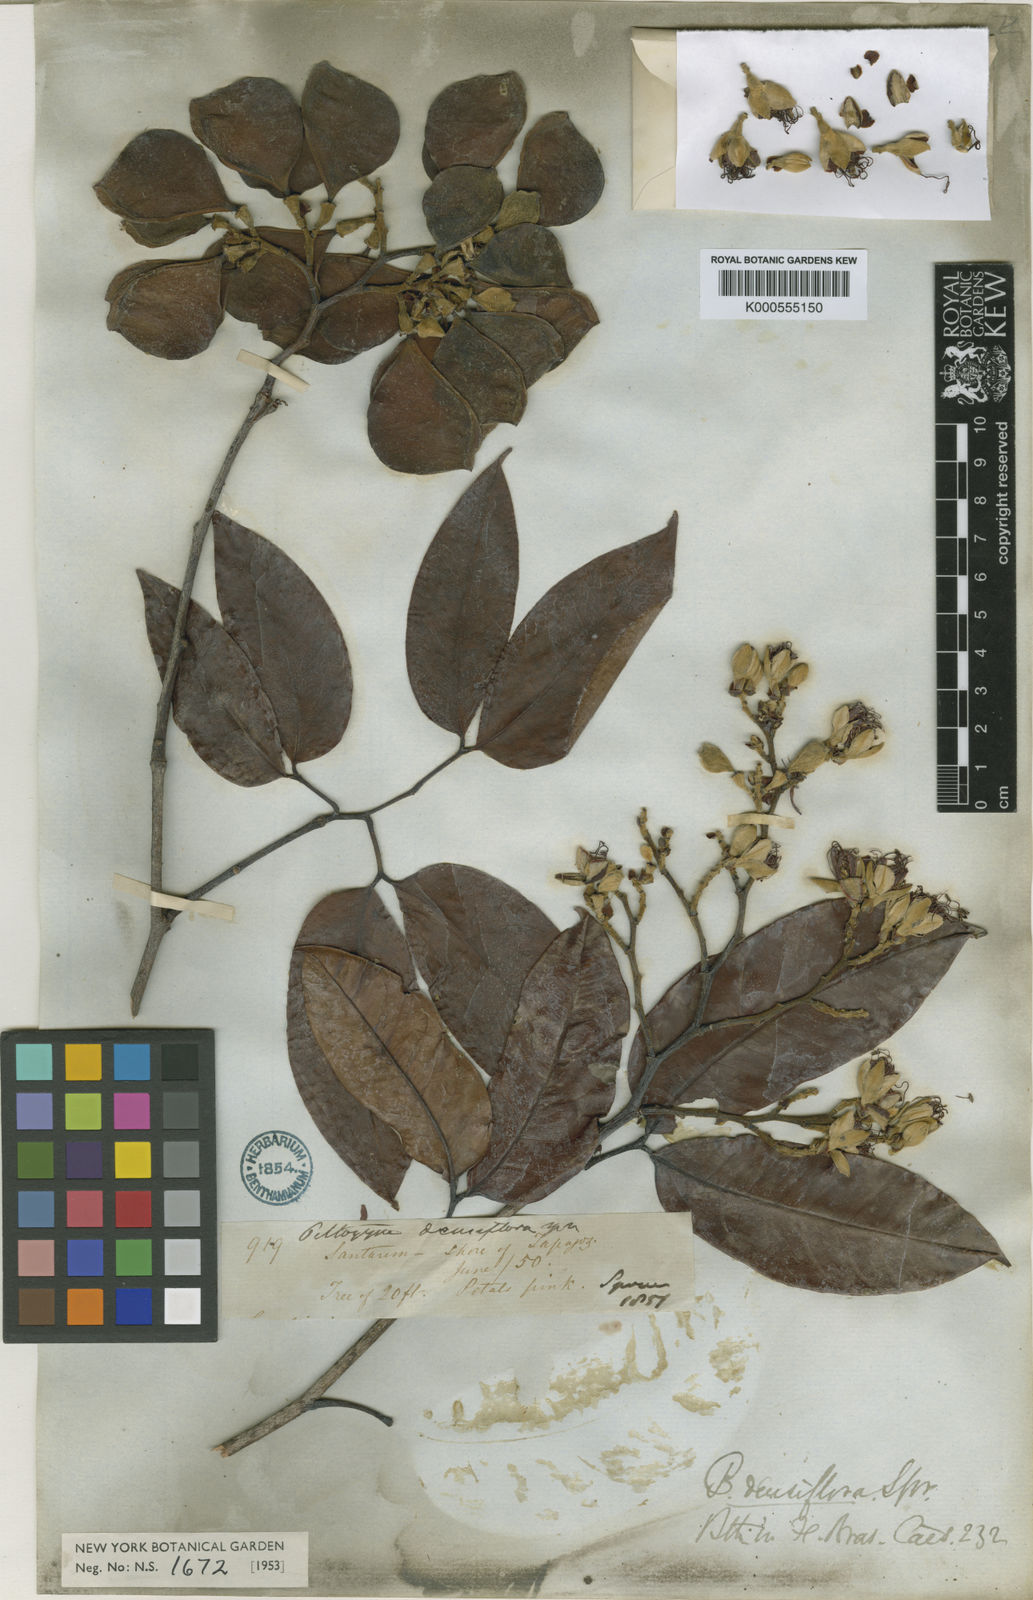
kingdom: Plantae
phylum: Tracheophyta
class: Magnoliopsida
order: Fabales
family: Fabaceae
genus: Peltogyne
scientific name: Peltogyne venosa
